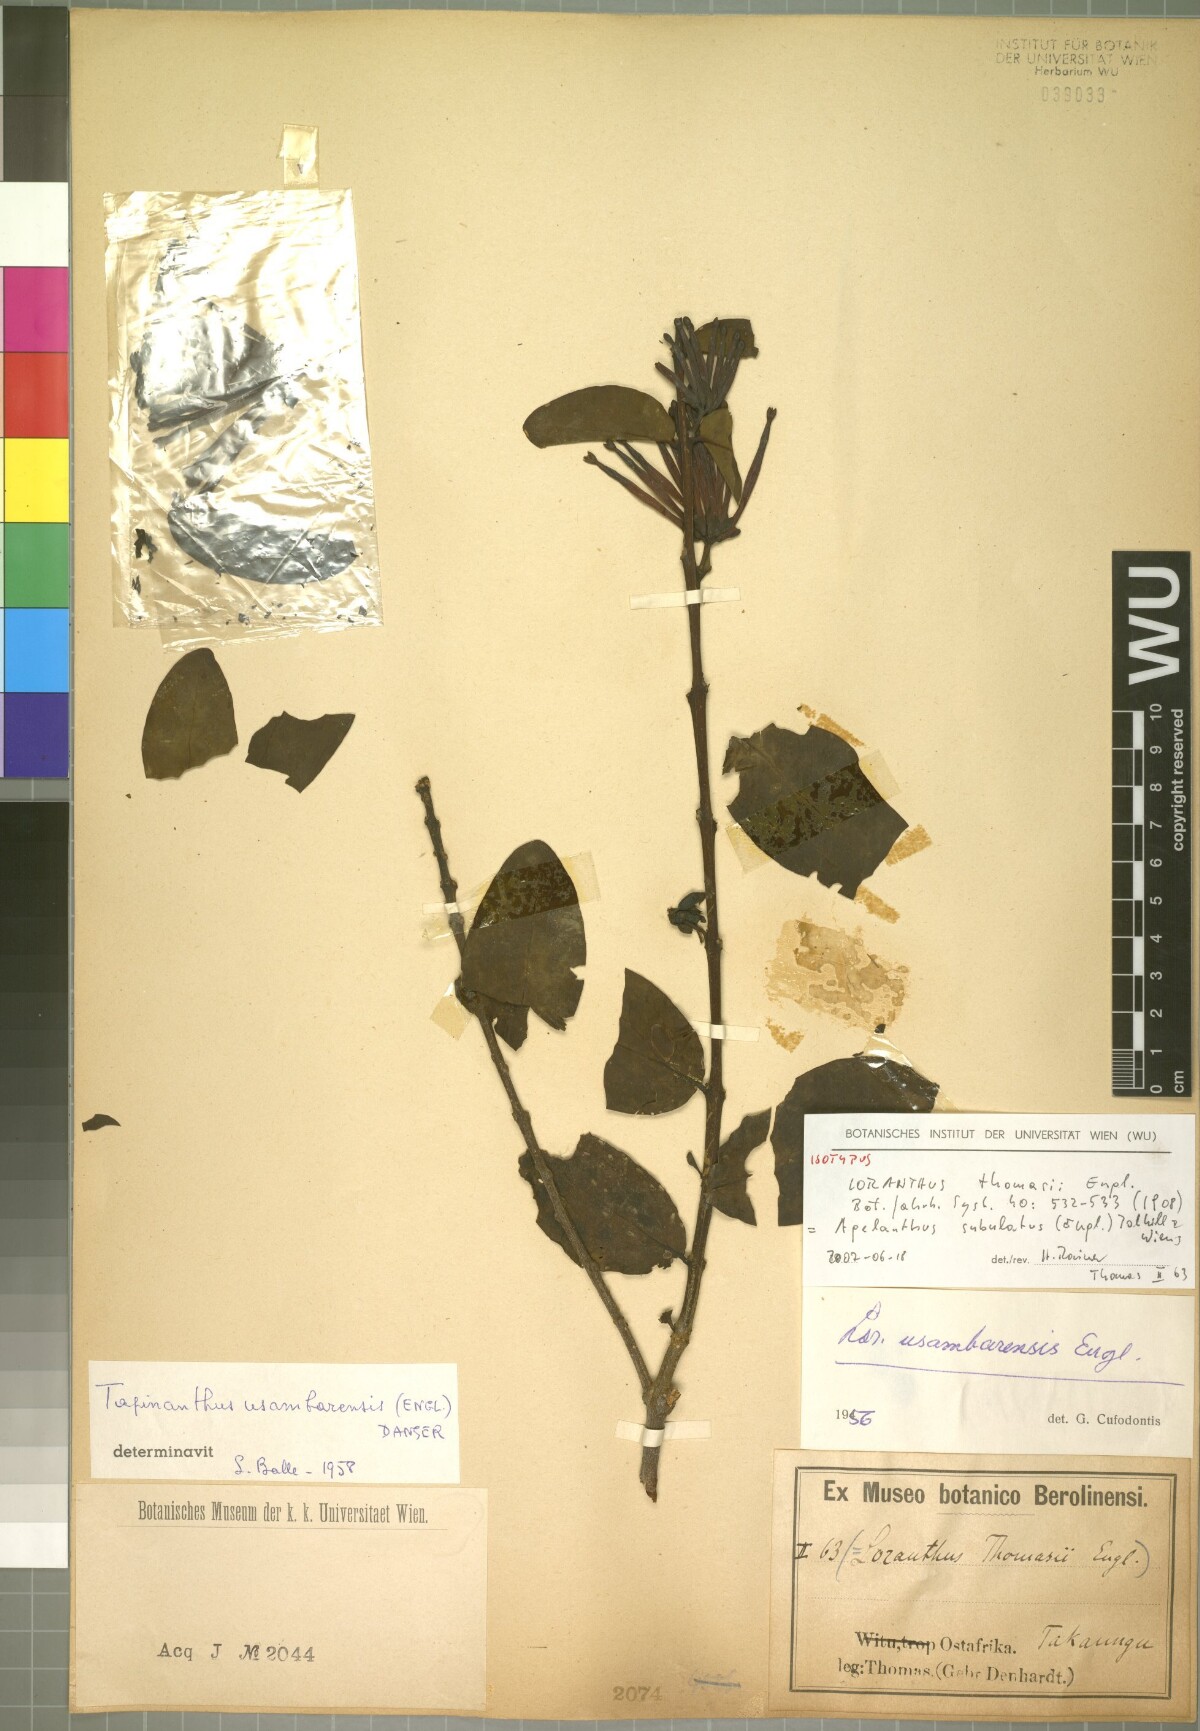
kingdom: Plantae
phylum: Tracheophyta
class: Magnoliopsida
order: Santalales
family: Loranthaceae
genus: Agelanthus
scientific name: Agelanthus subulatus
